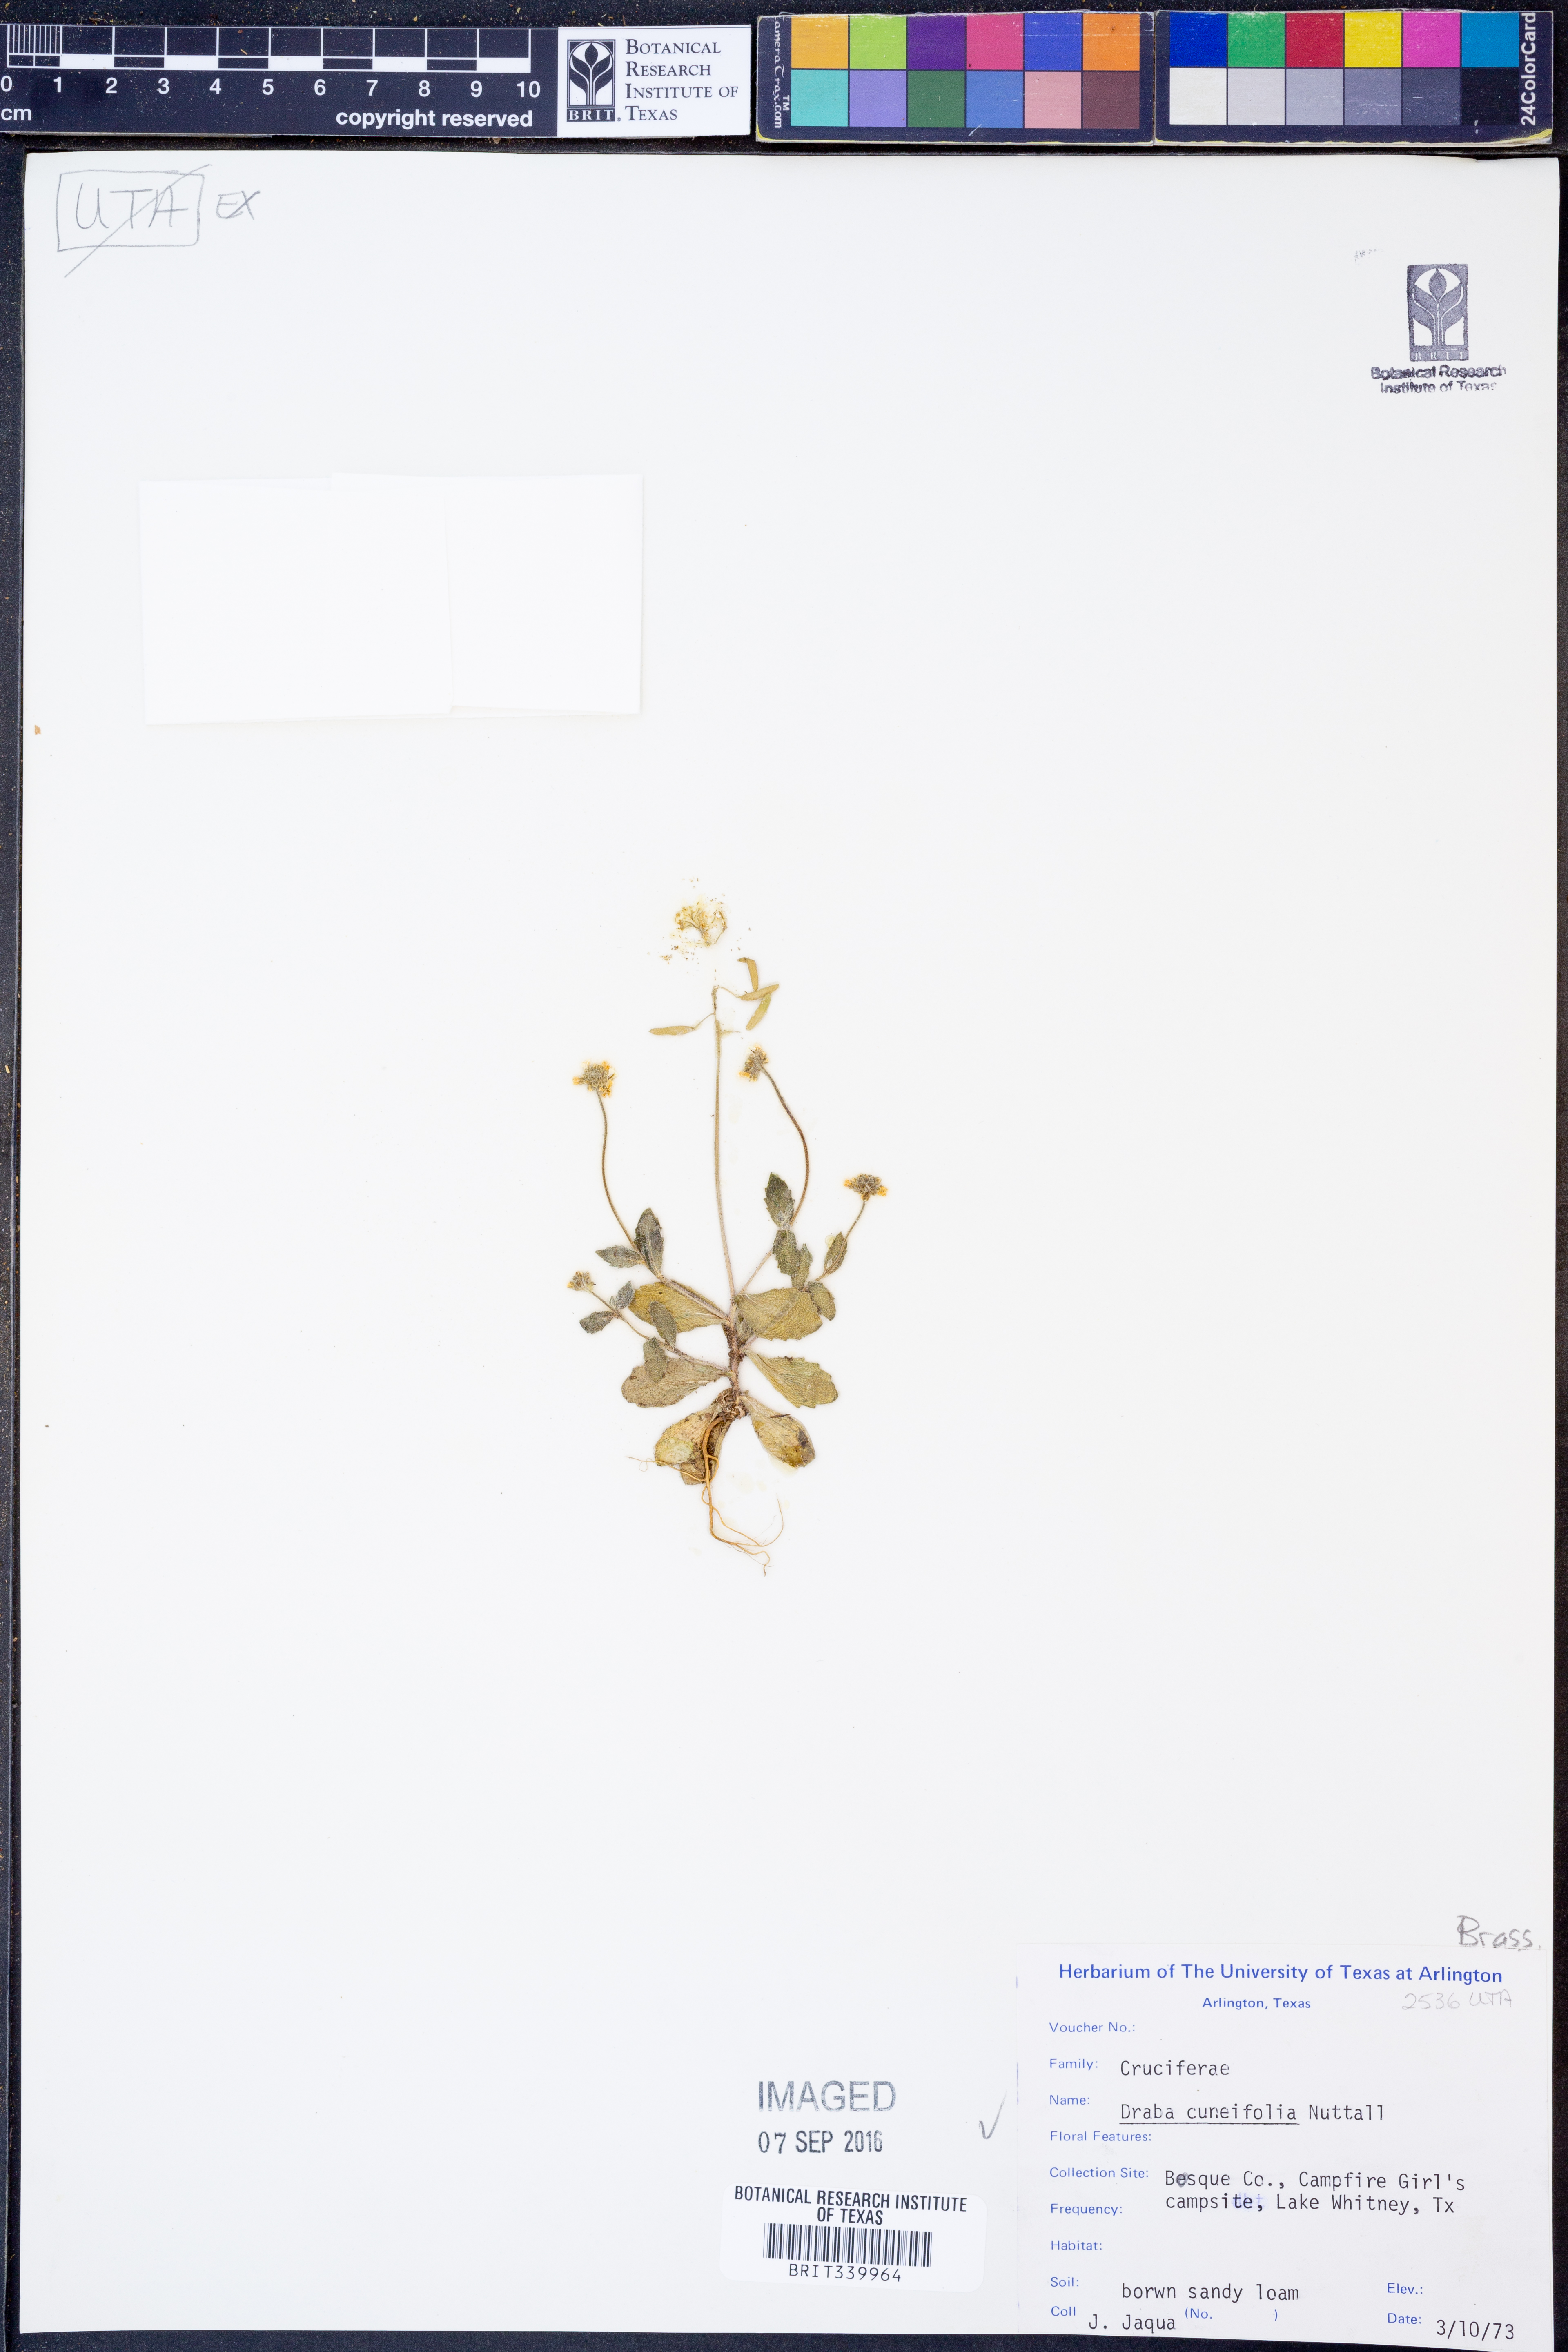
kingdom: Plantae
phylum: Tracheophyta
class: Magnoliopsida
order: Brassicales
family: Brassicaceae
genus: Tomostima
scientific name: Tomostima cuneifolia
